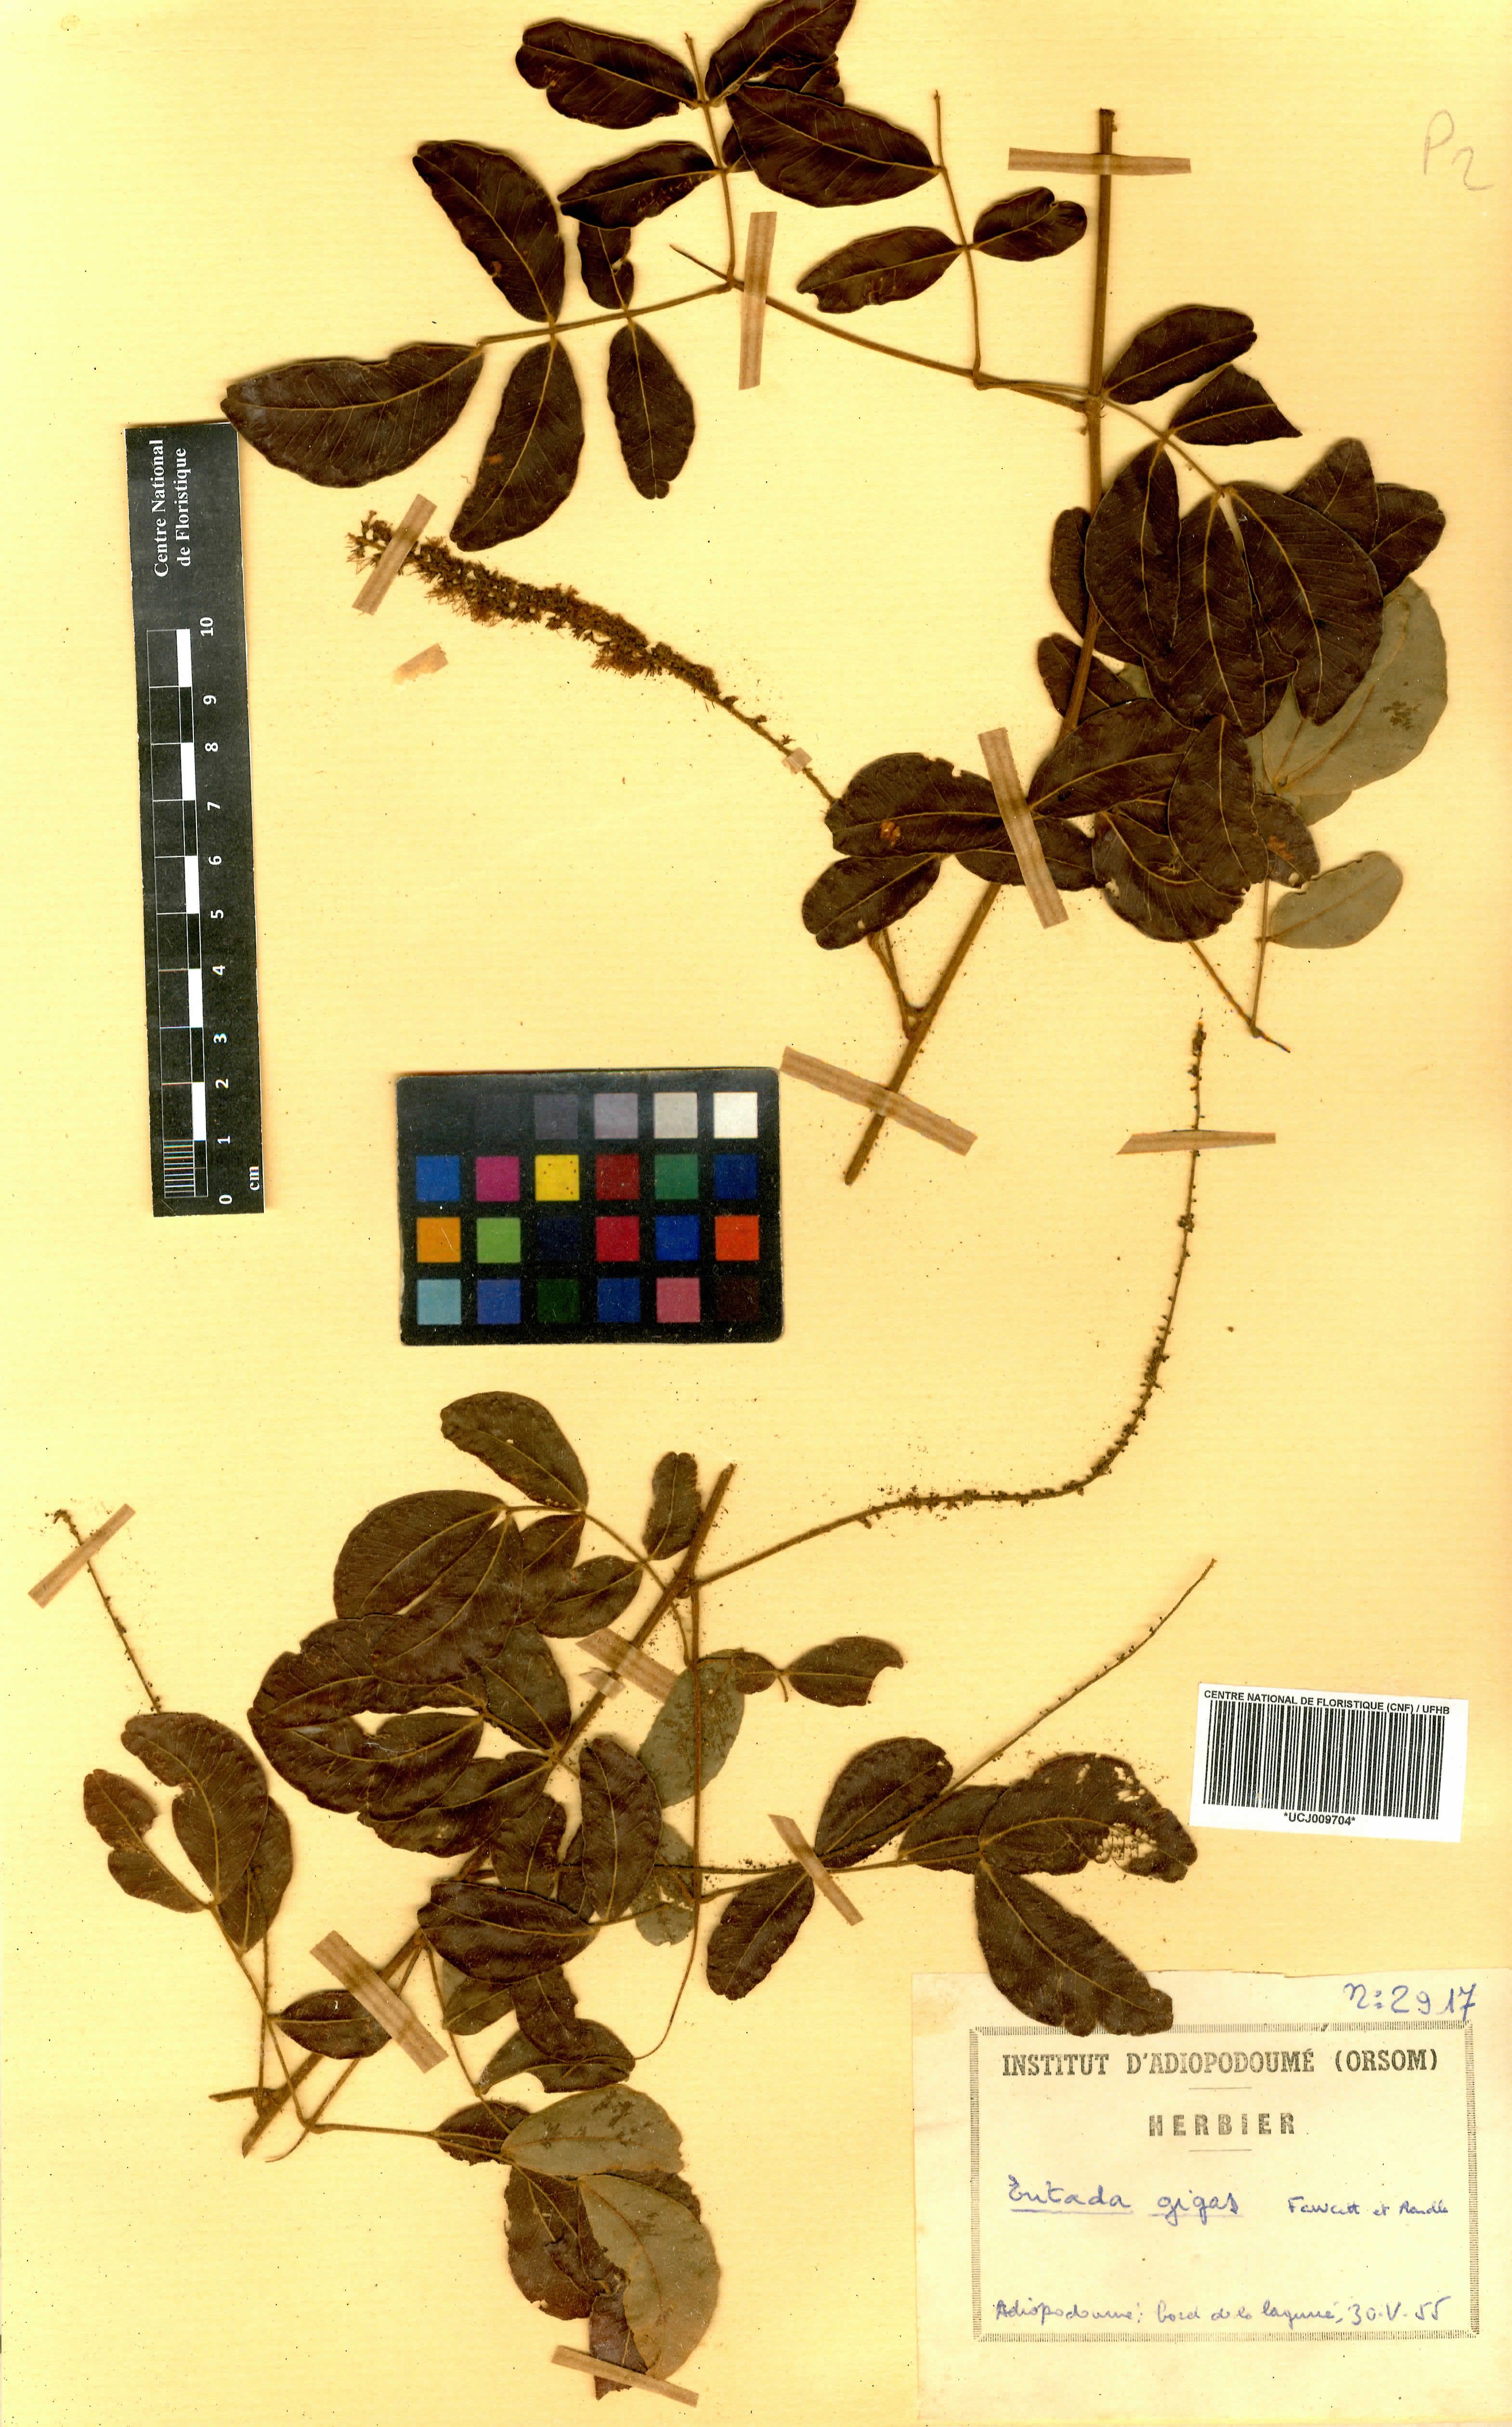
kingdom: Plantae
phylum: Tracheophyta
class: Magnoliopsida
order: Fabales
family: Fabaceae
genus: Entada
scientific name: Entada gigas
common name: Nicker-bean
